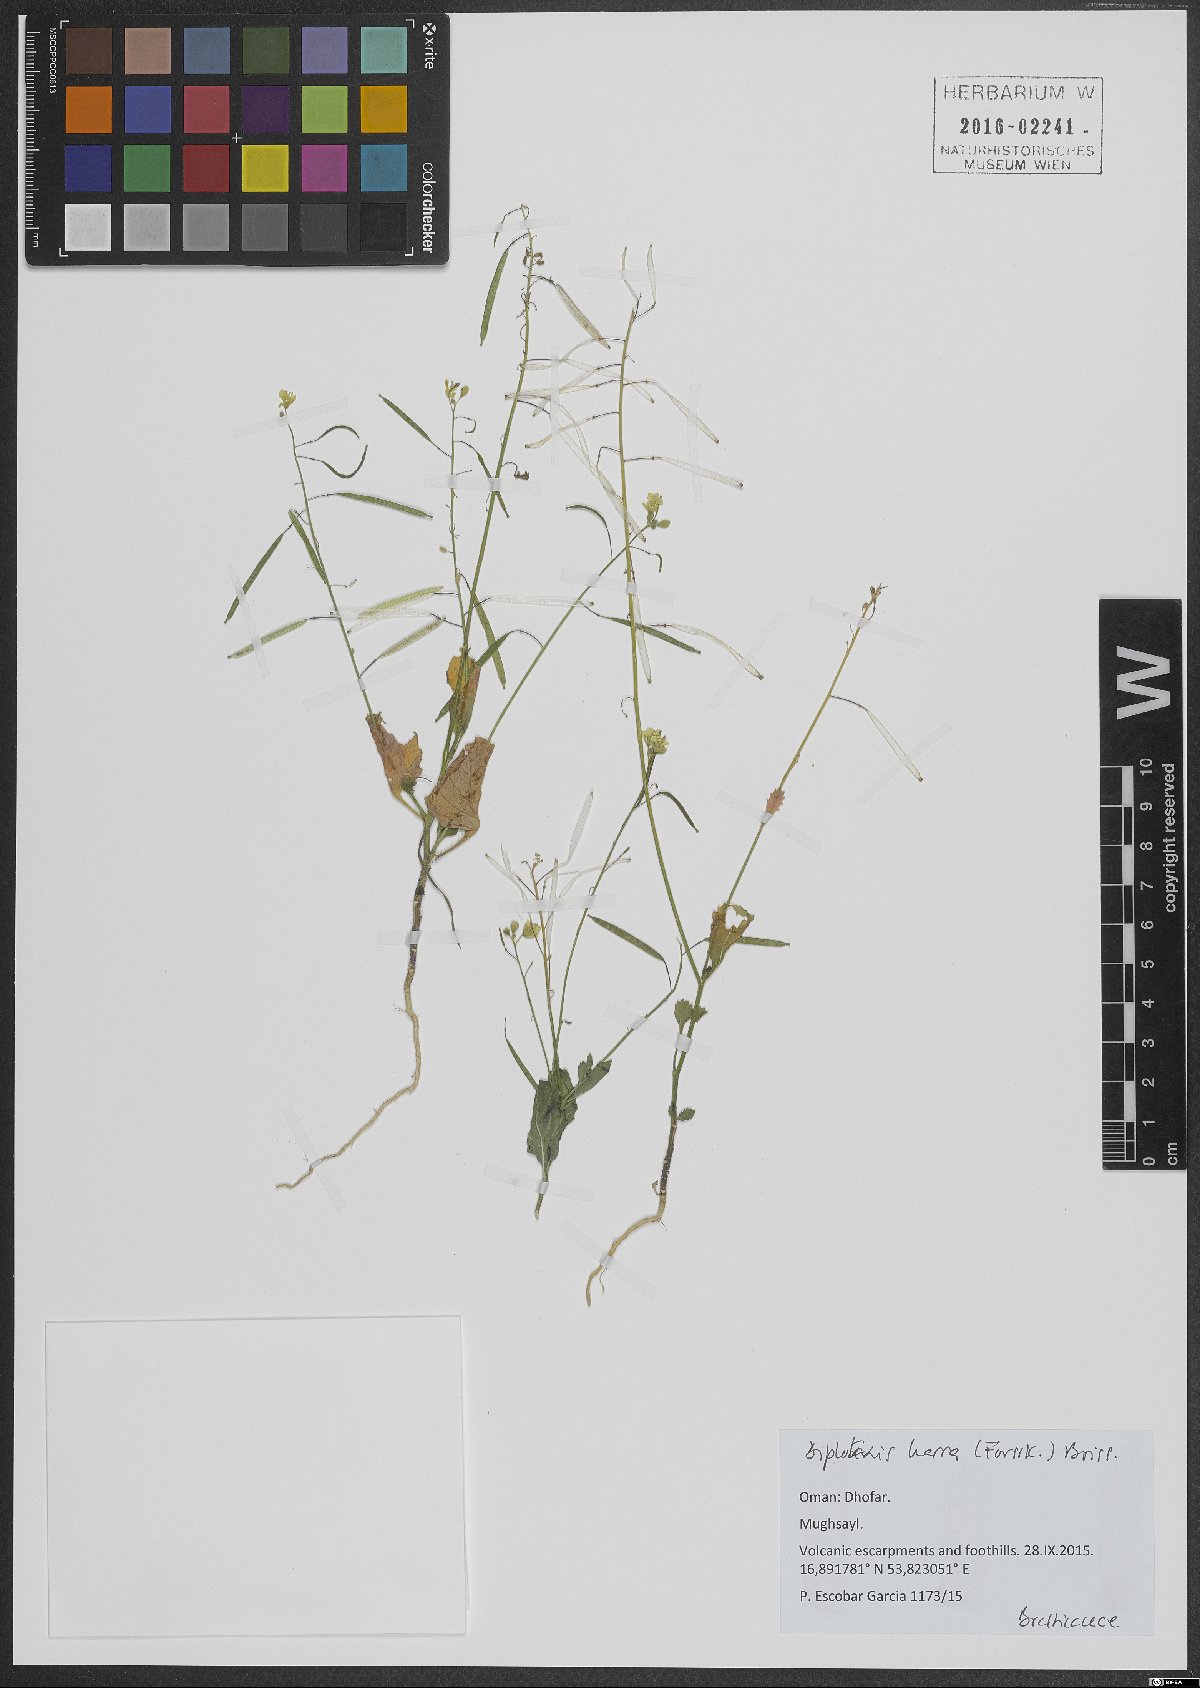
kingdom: Plantae
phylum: Tracheophyta
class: Magnoliopsida
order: Brassicales
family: Brassicaceae
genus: Diplotaxis
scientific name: Diplotaxis harra
